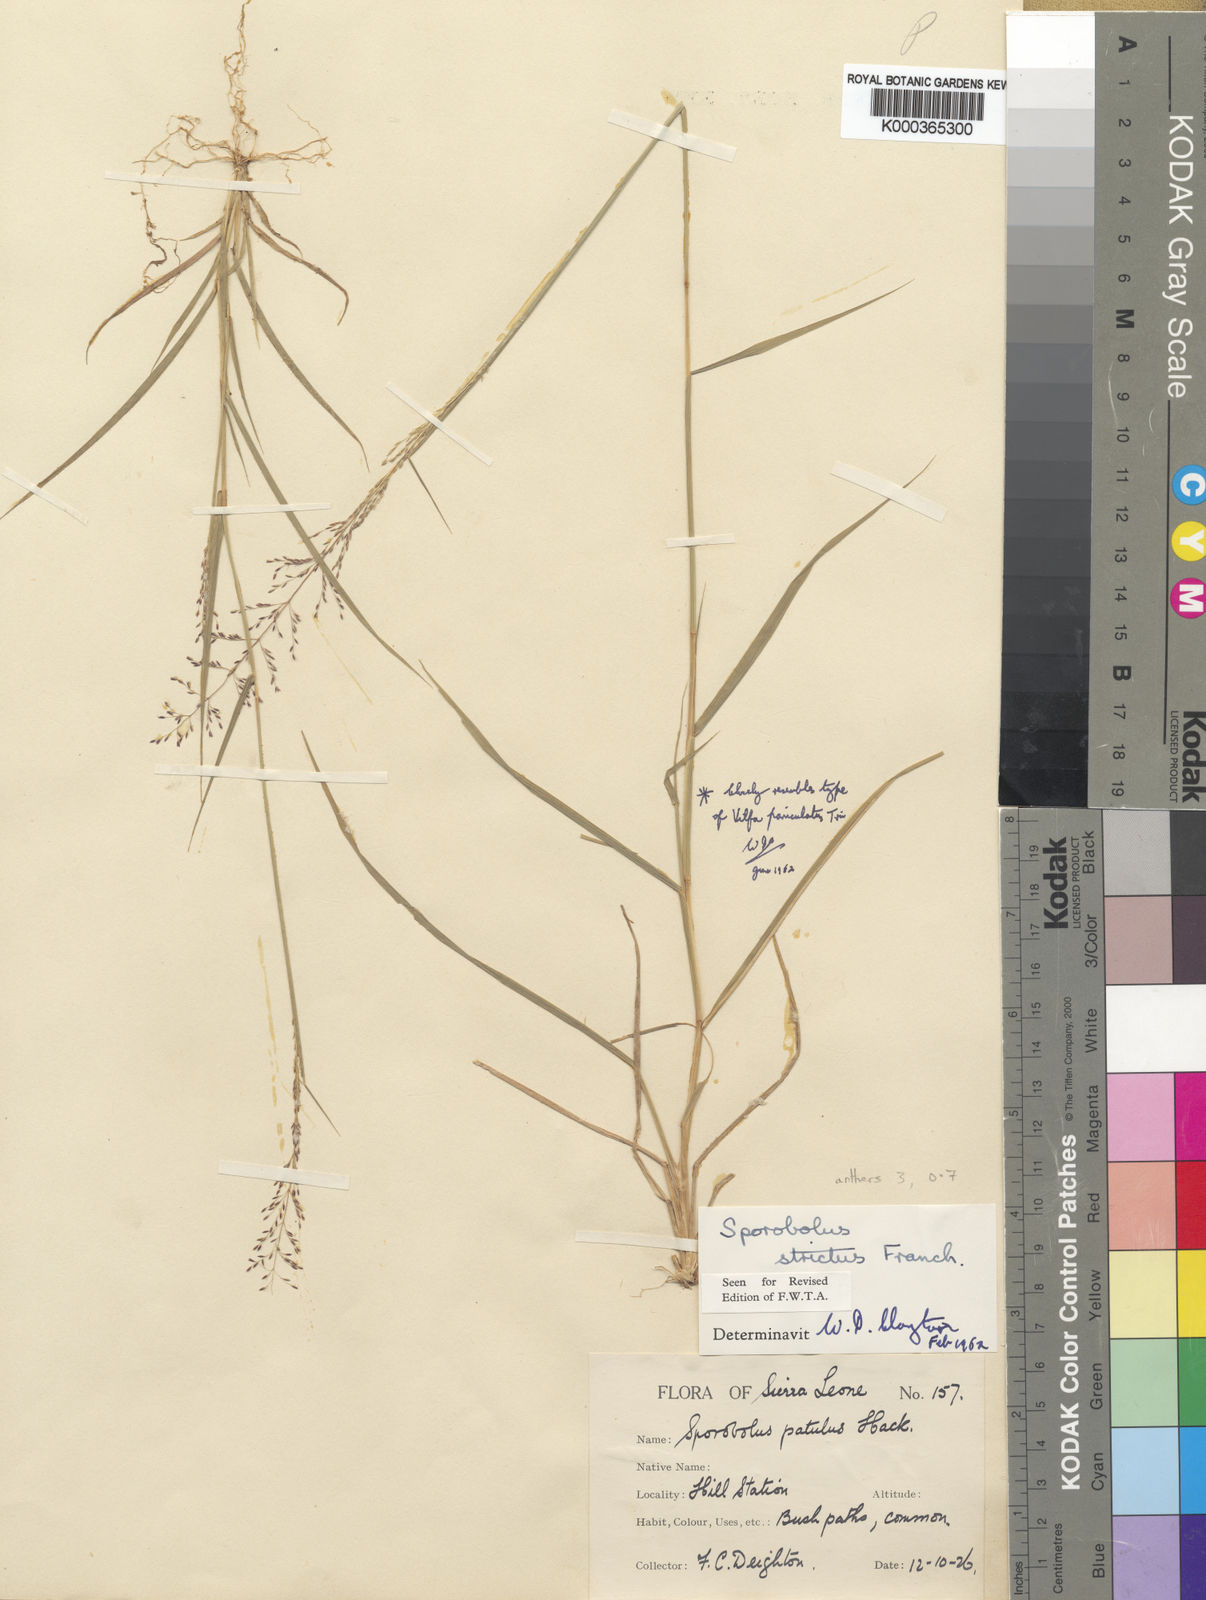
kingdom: Plantae
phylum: Tracheophyta
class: Liliopsida
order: Poales
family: Poaceae
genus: Sporobolus
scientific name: Sporobolus paniculatus
